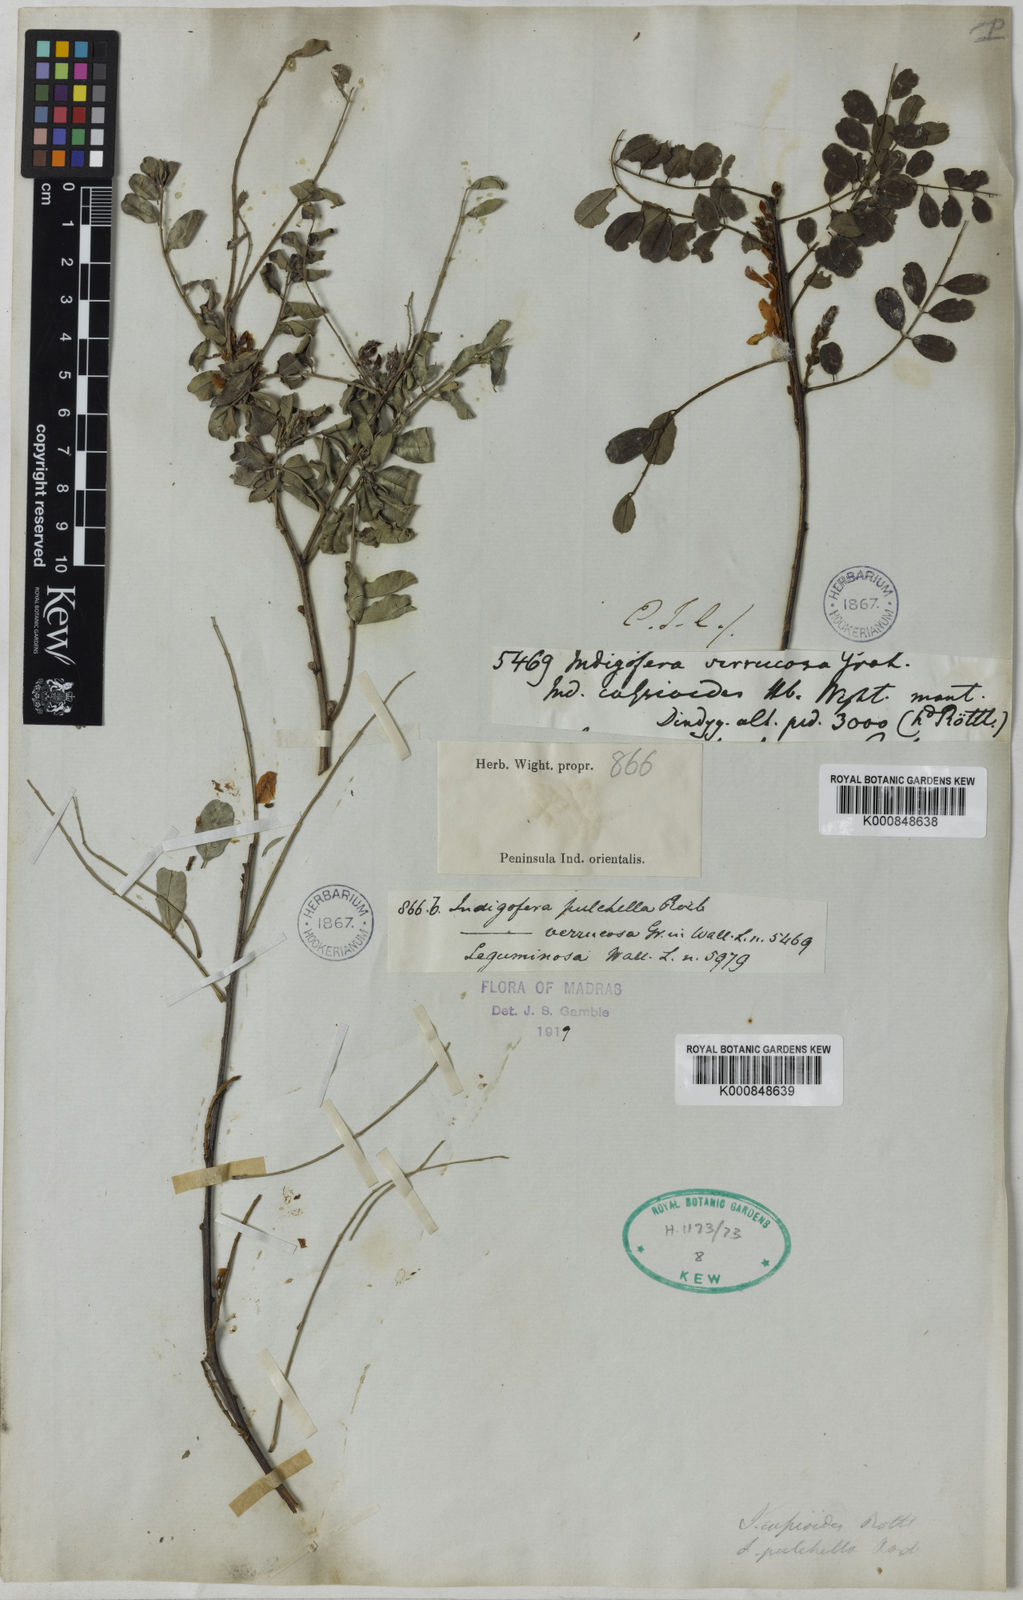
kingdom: Plantae
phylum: Tracheophyta
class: Magnoliopsida
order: Fabales
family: Fabaceae
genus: Indigofera
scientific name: Indigofera cassioides
